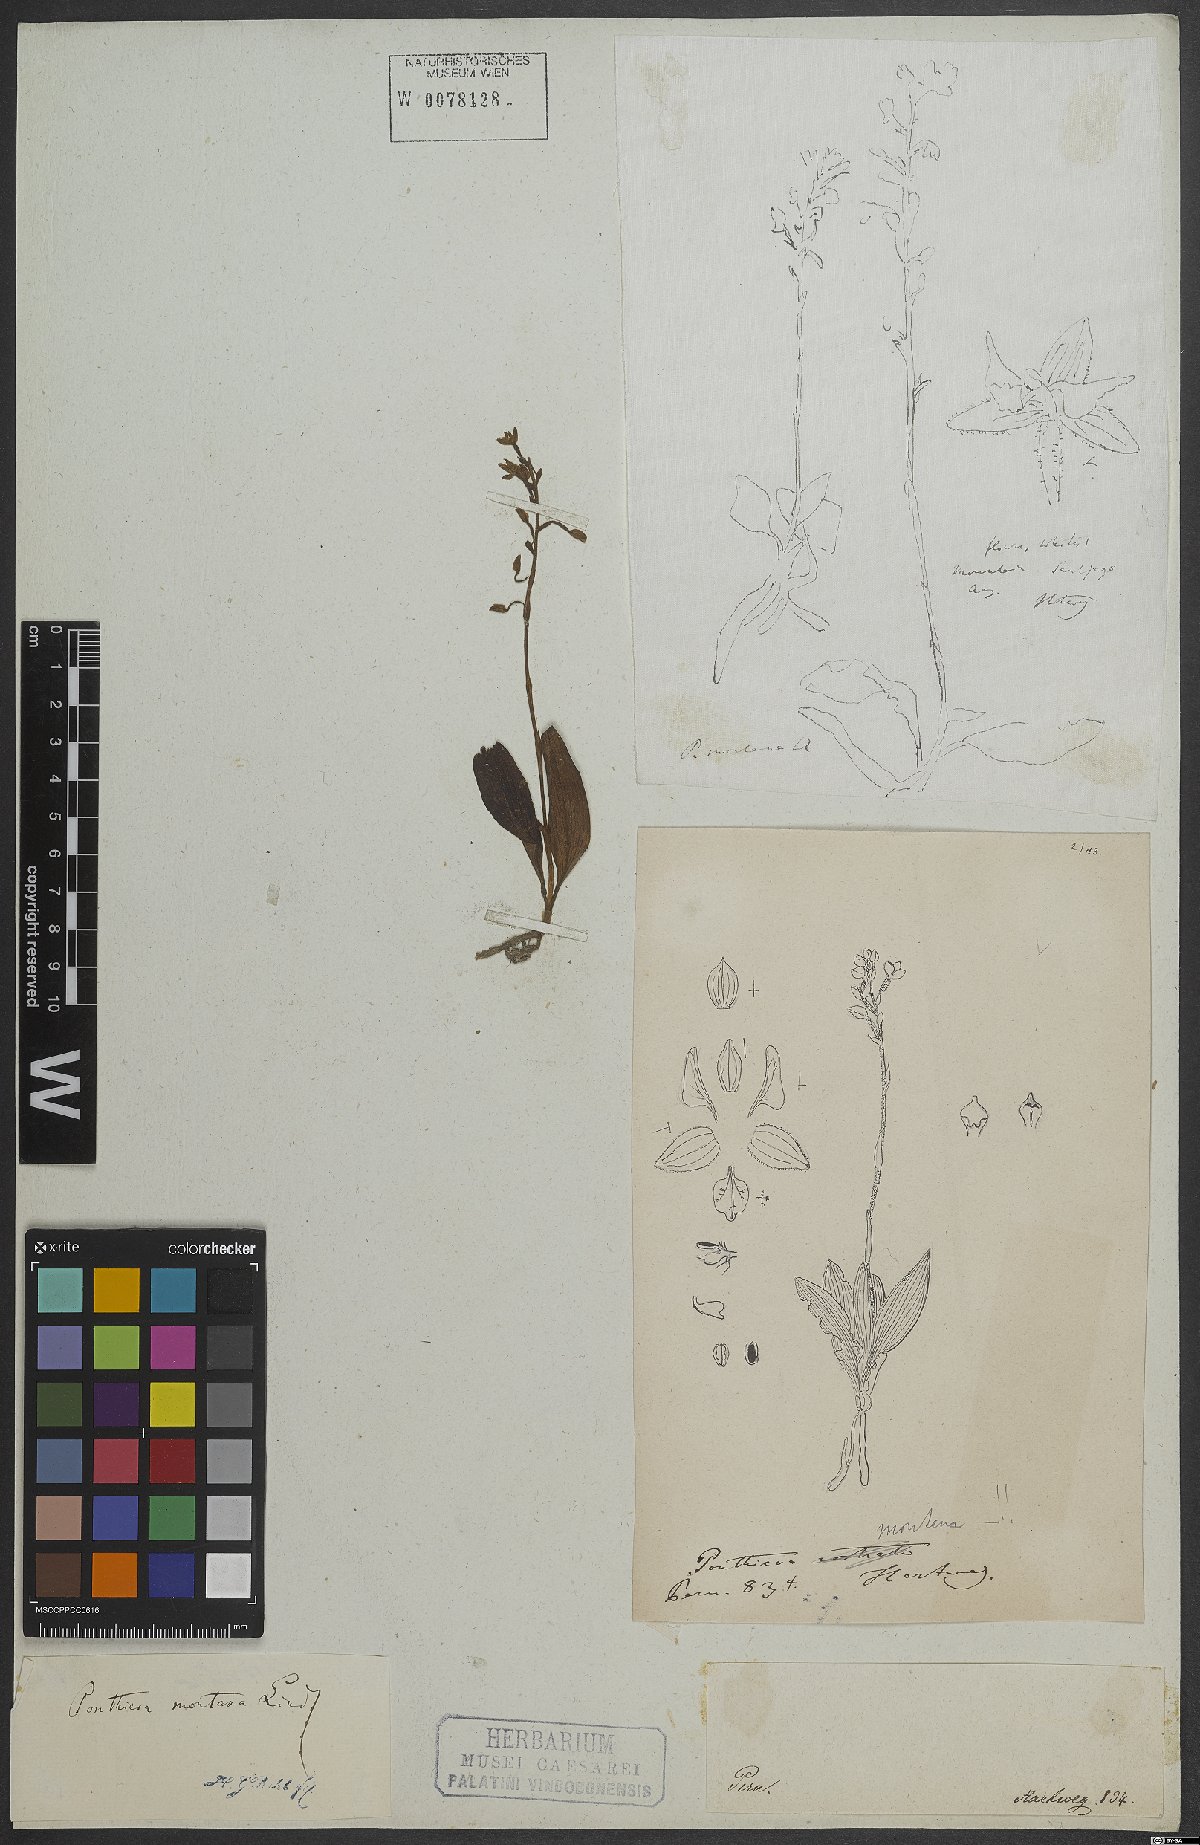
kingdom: Plantae
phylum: Tracheophyta
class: Liliopsida
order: Asparagales
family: Orchidaceae
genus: Ponthieva
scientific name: Ponthieva pubescens
